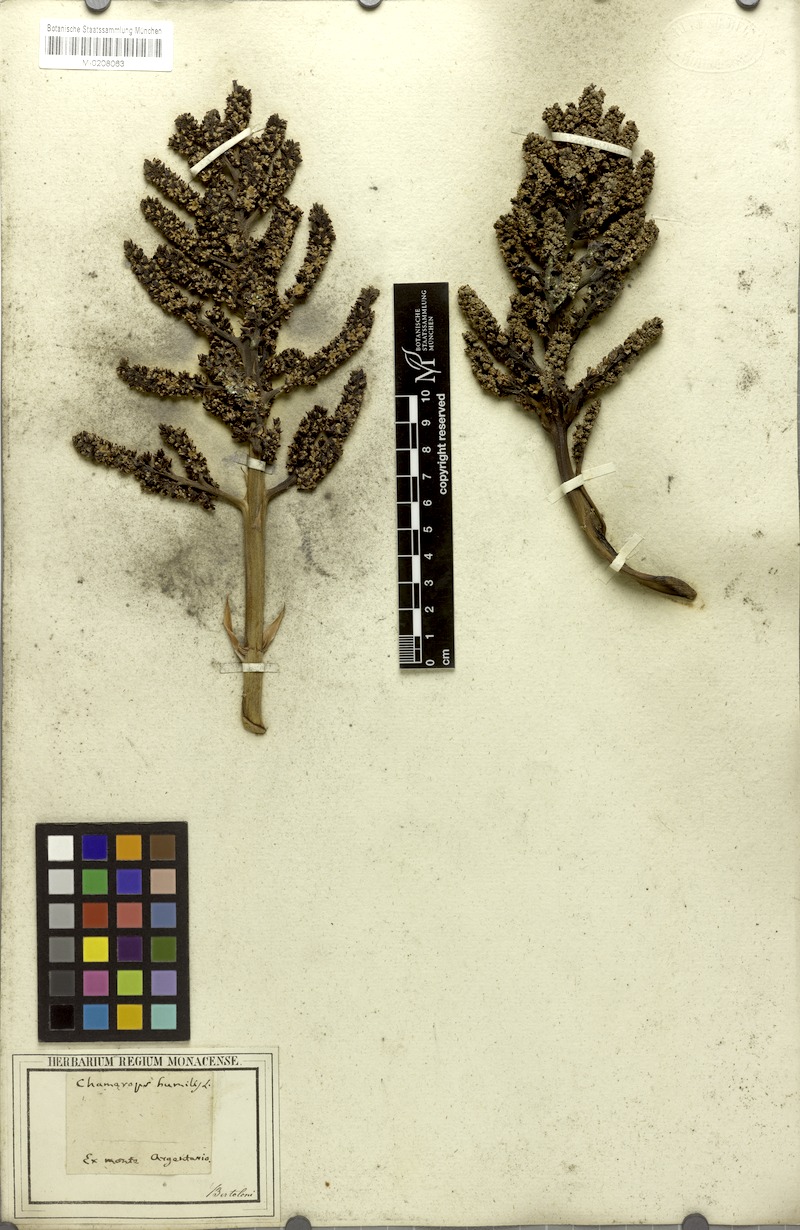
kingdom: Plantae
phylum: Tracheophyta
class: Liliopsida
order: Arecales
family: Arecaceae
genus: Chamaerops
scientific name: Chamaerops humilis
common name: Dwarf fan palm
